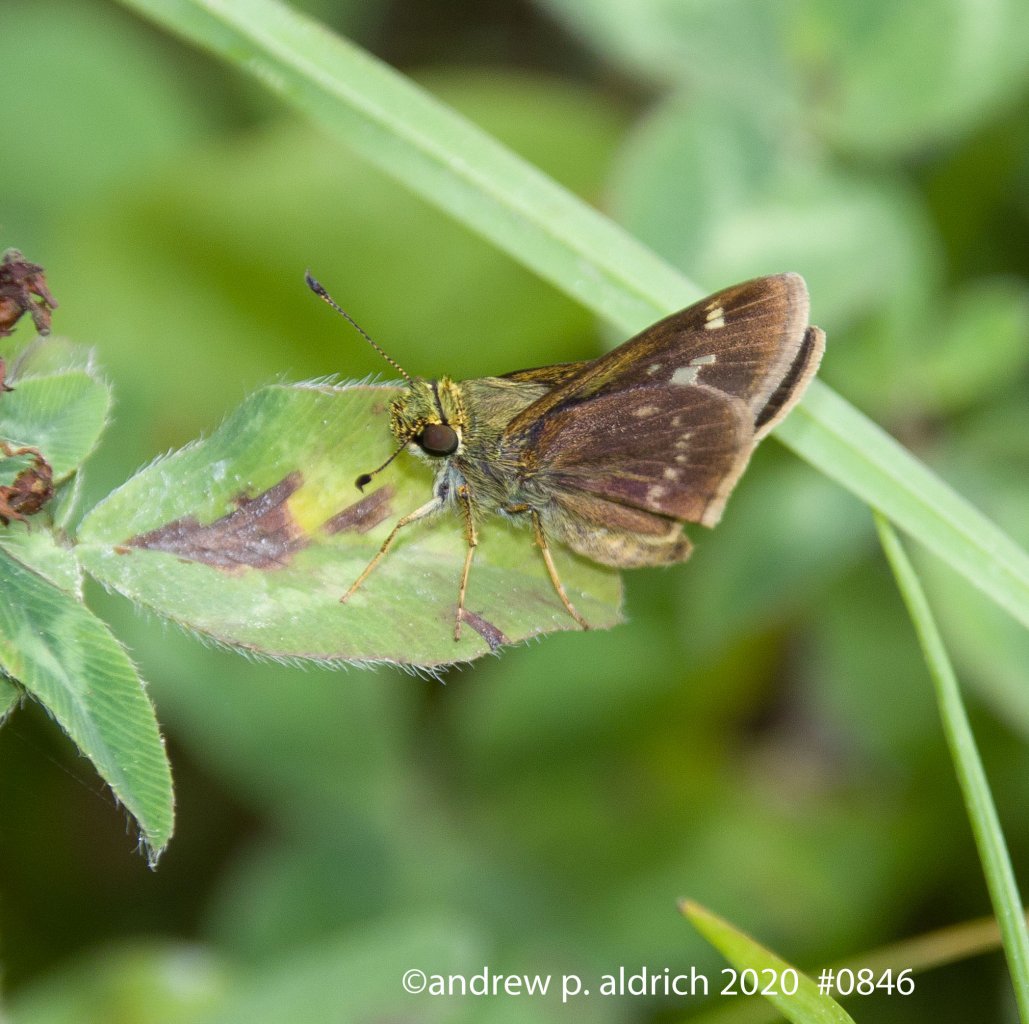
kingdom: Animalia
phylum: Arthropoda
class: Insecta
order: Lepidoptera
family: Hesperiidae
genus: Vernia
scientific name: Vernia verna
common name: Little Glassywing
